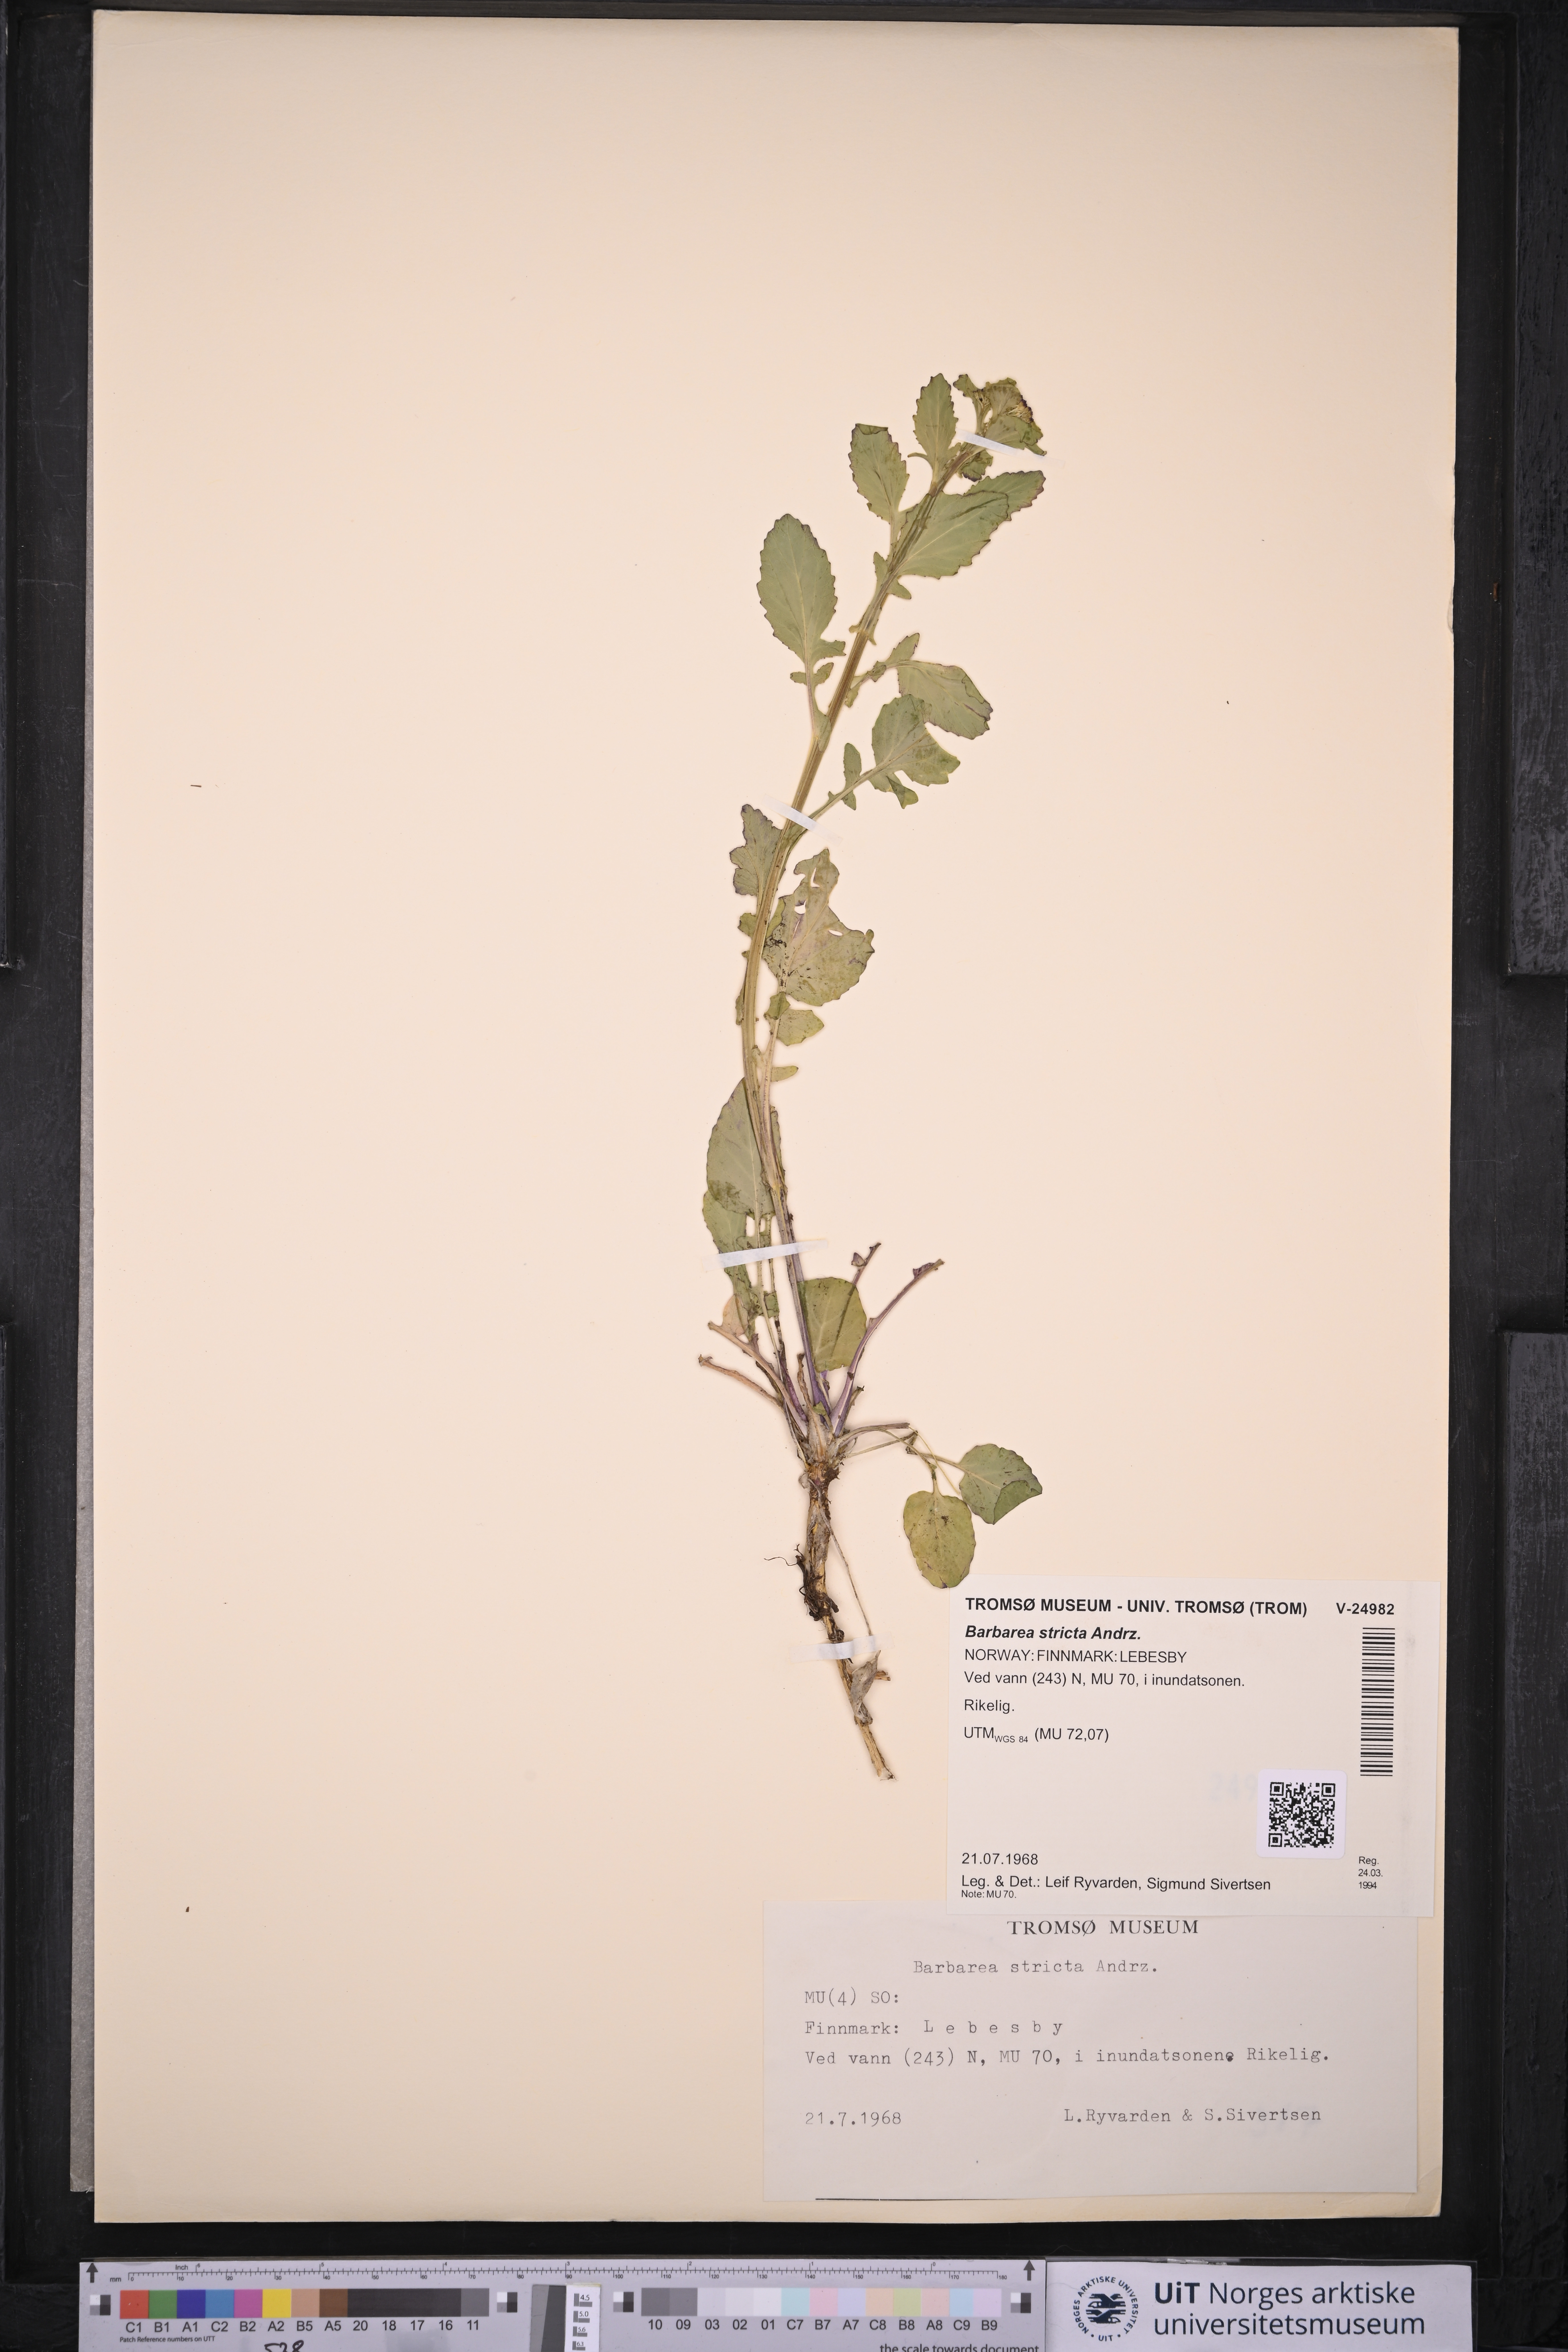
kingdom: Plantae
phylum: Tracheophyta
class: Magnoliopsida
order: Brassicales
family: Brassicaceae
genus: Barbarea
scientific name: Barbarea stricta
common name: Small-flowered winter-cress
